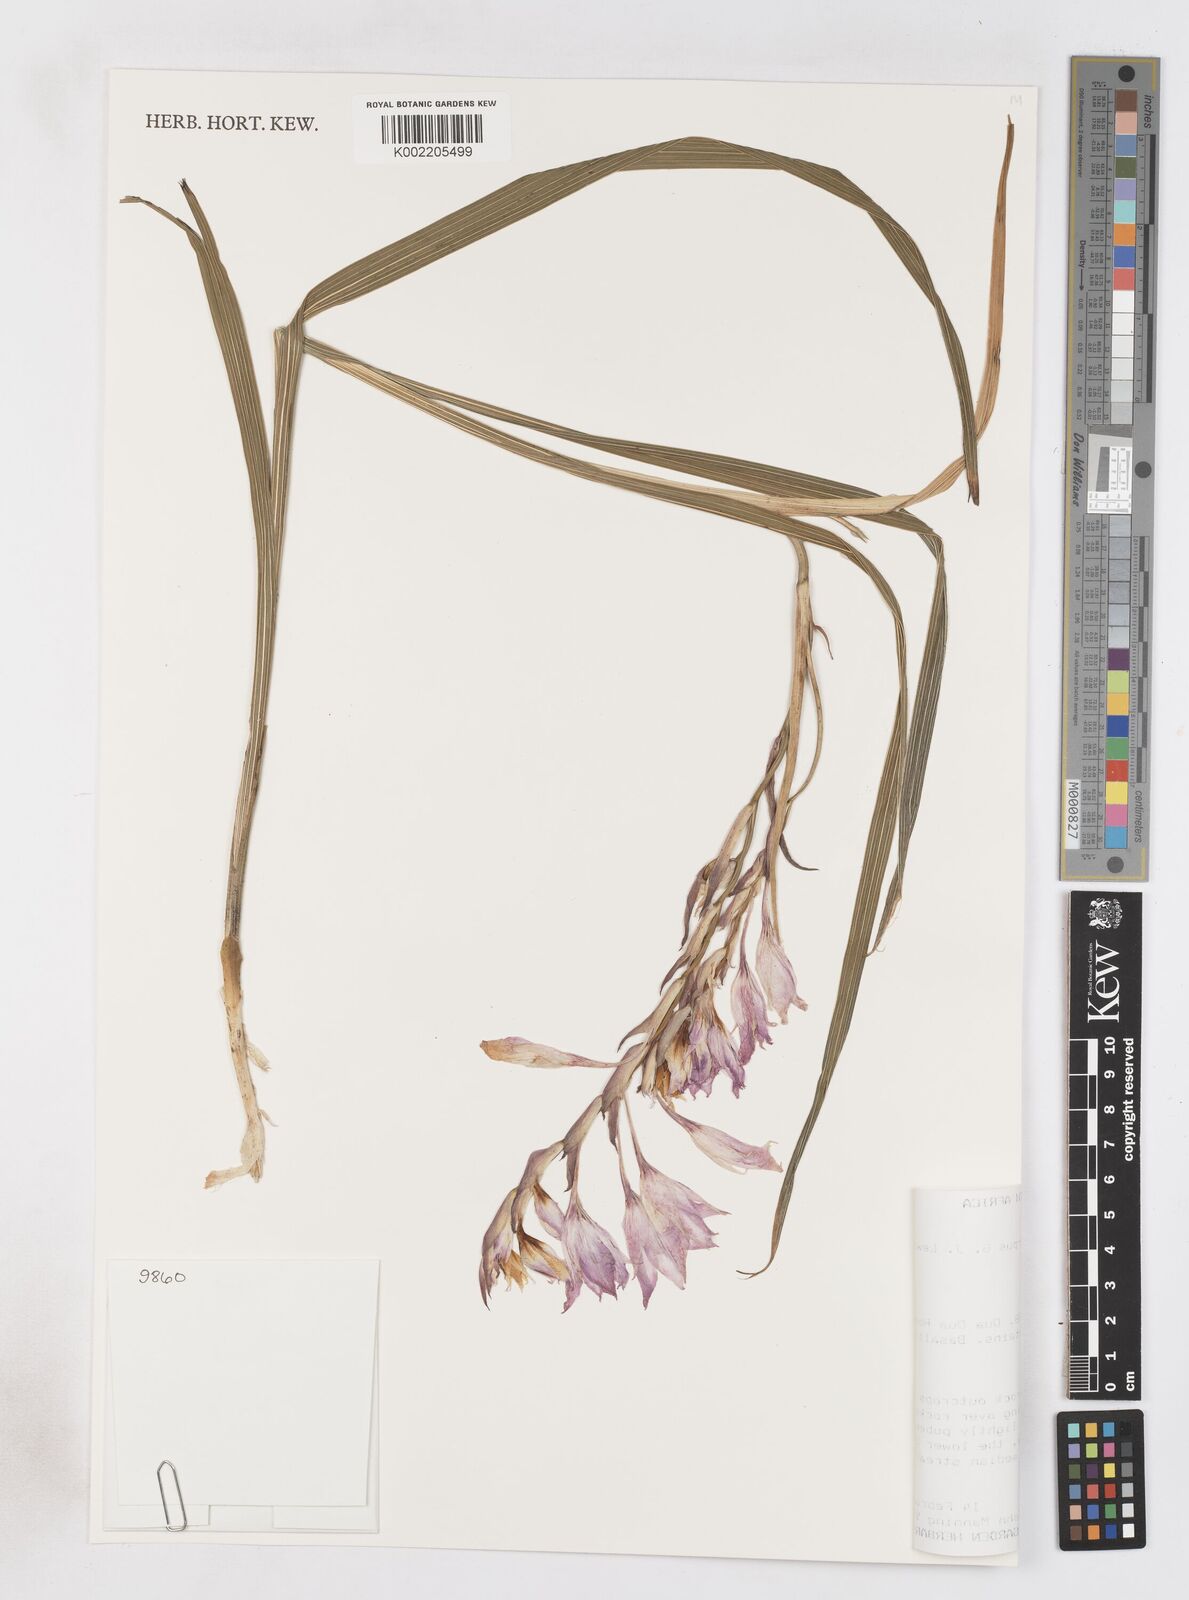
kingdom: Plantae
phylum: Tracheophyta
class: Liliopsida
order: Asparagales
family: Iridaceae
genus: Gladiolus
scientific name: Gladiolus microcarpus
